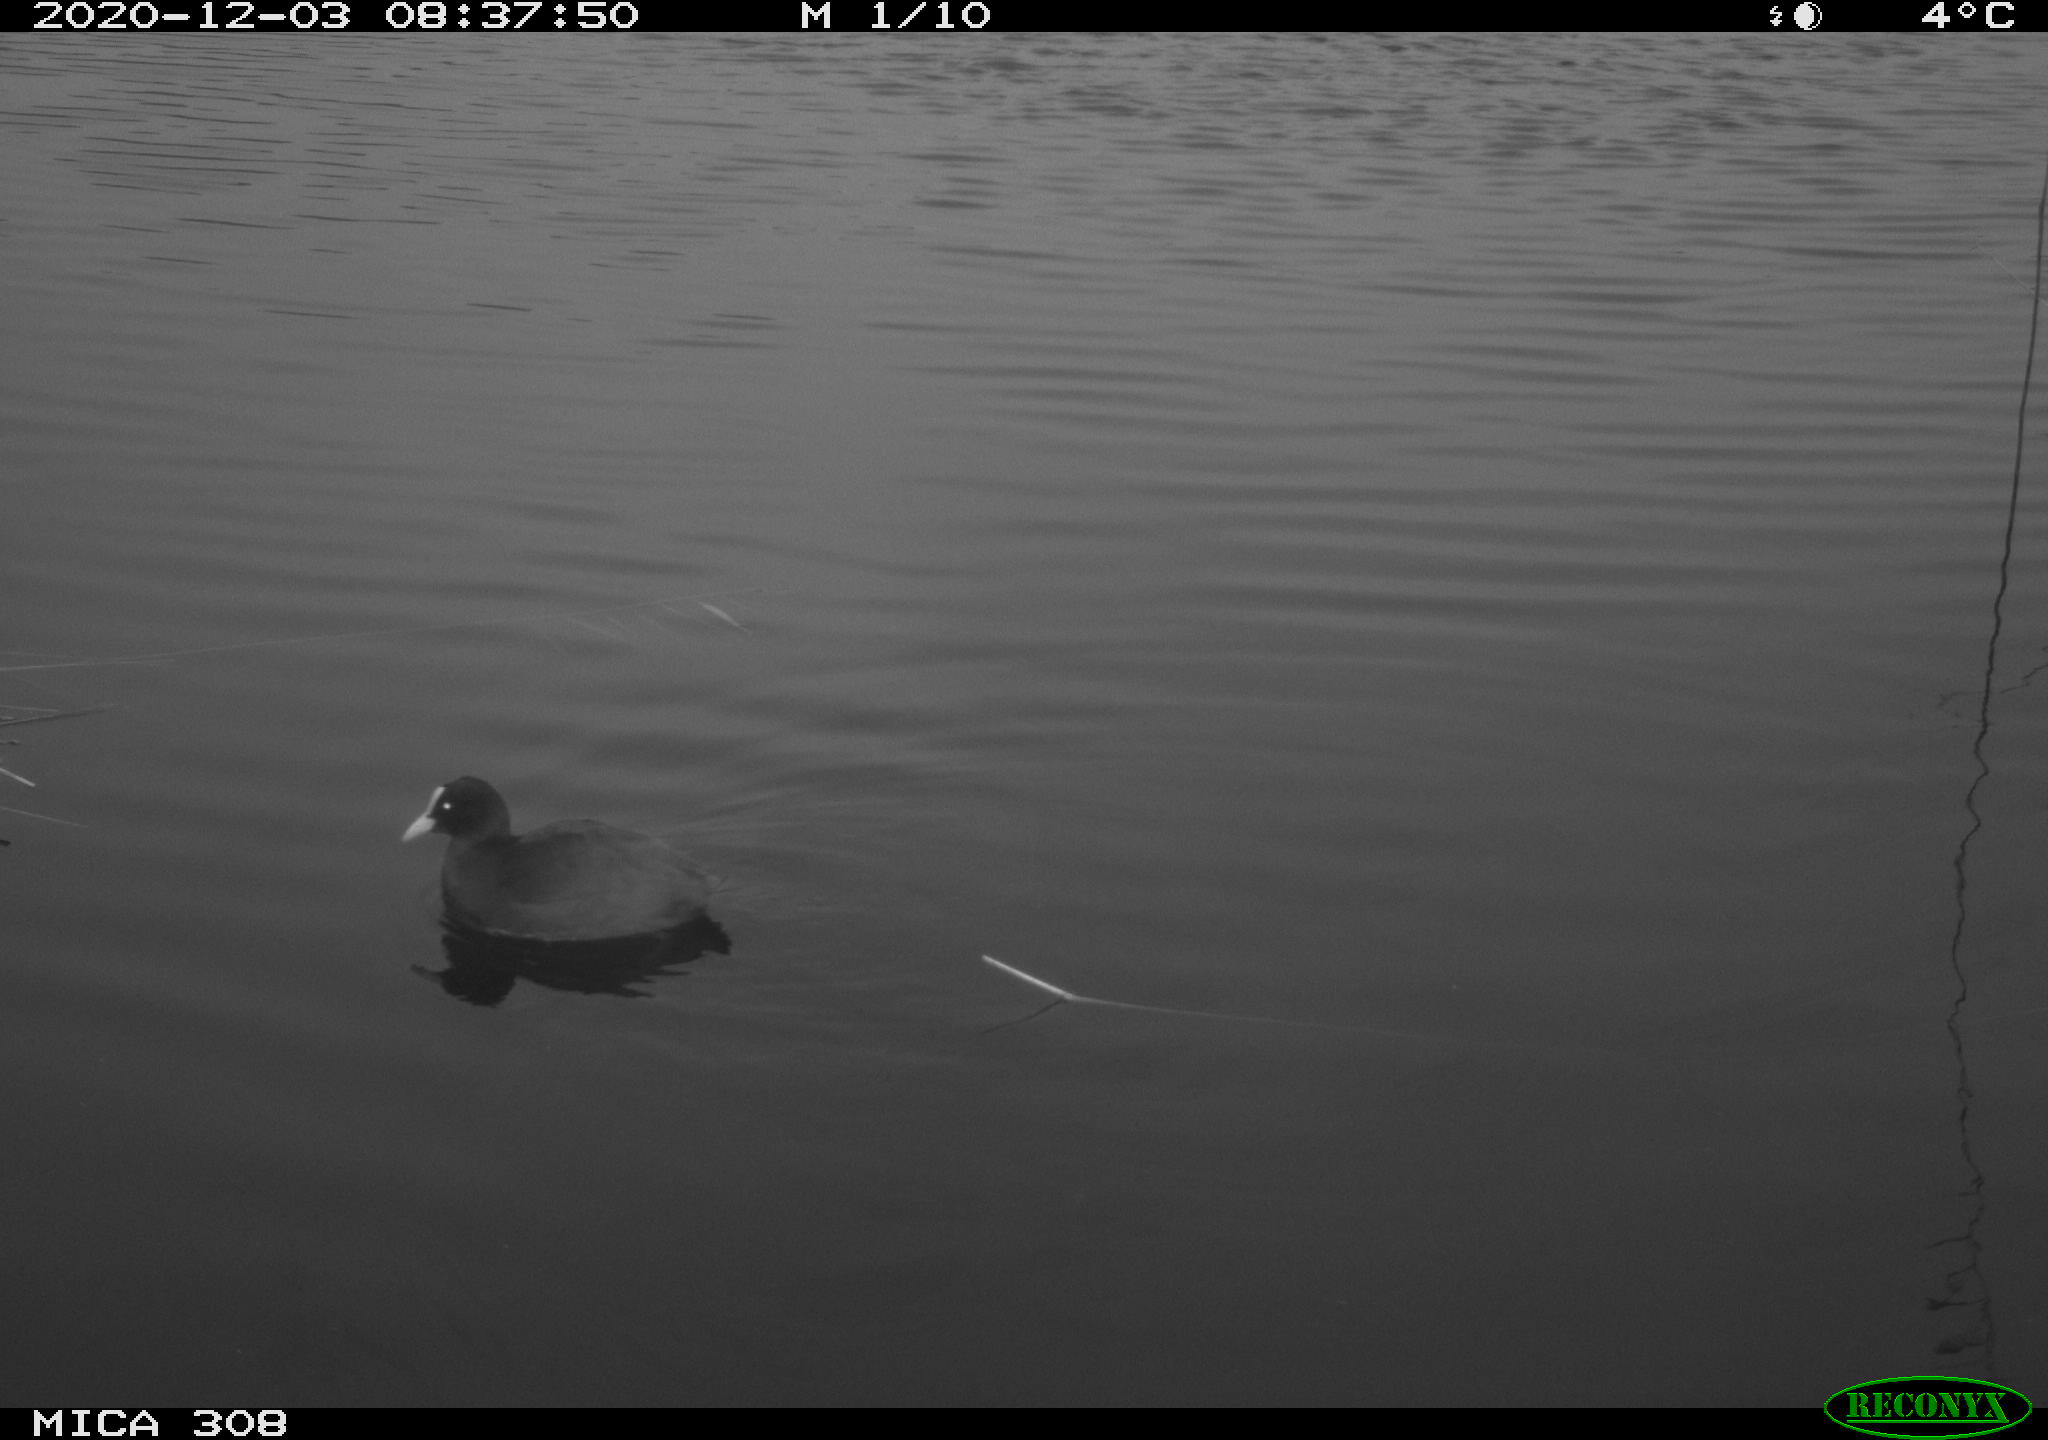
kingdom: Animalia
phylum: Chordata
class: Aves
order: Gruiformes
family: Rallidae
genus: Fulica
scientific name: Fulica atra
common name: Eurasian coot
